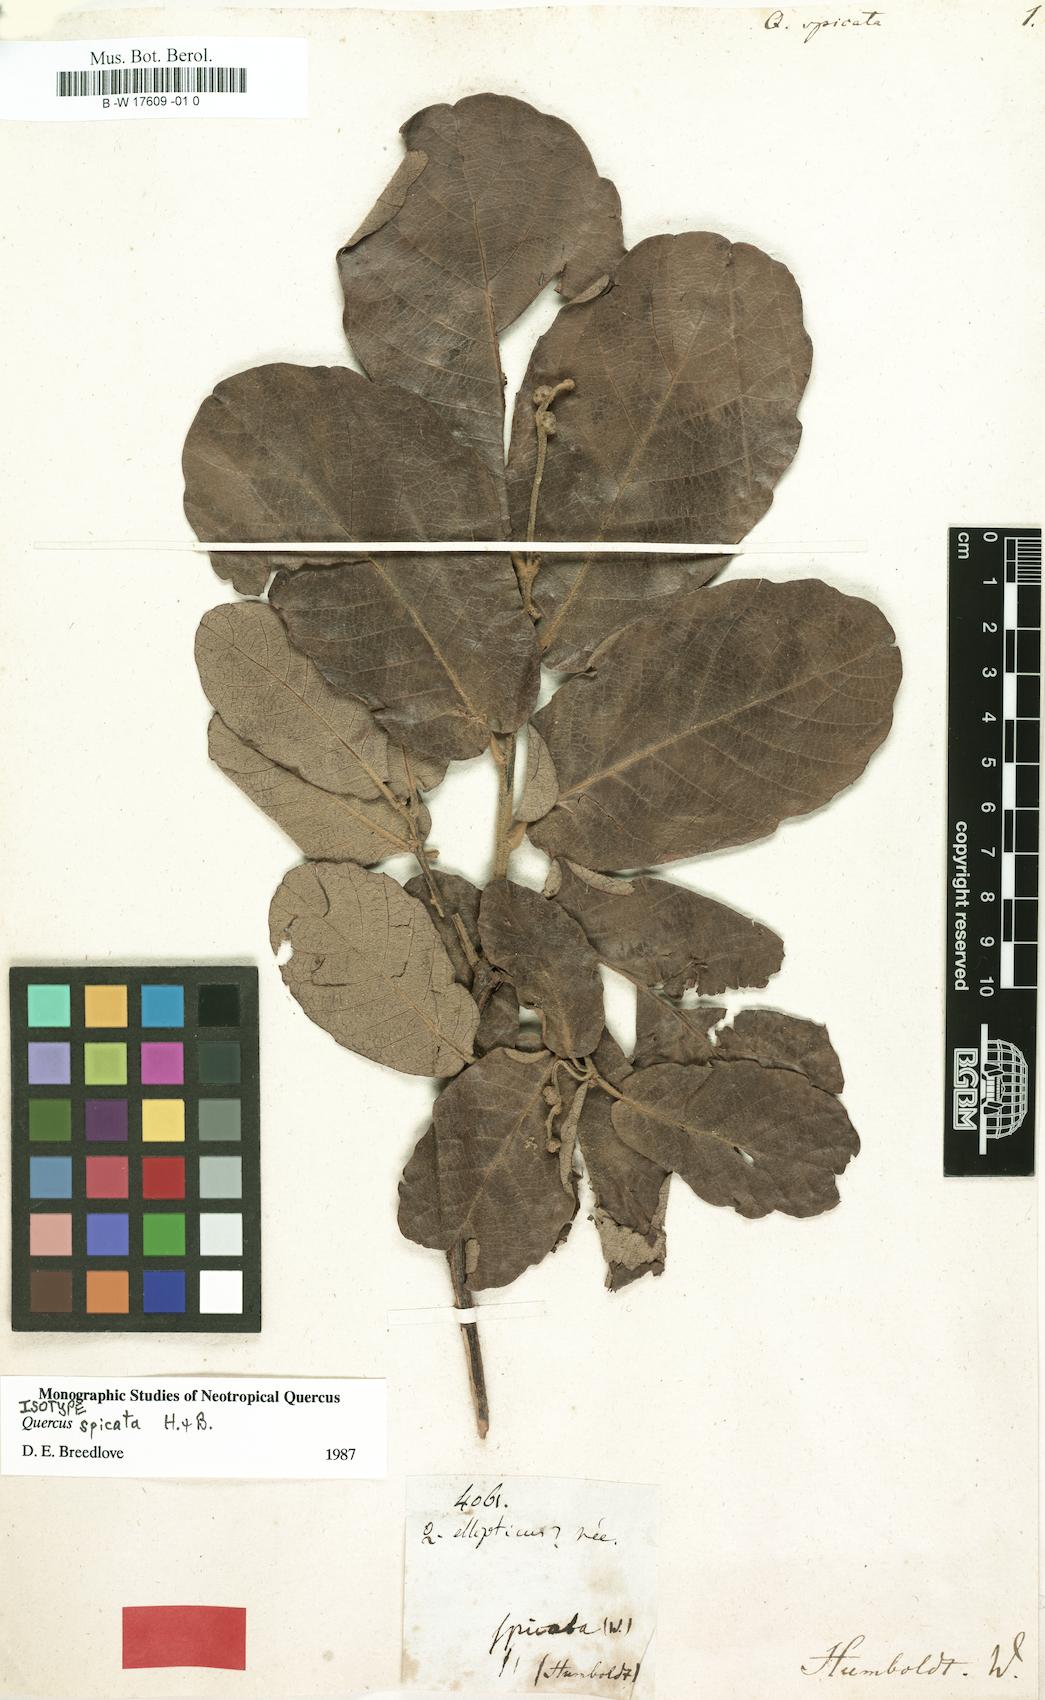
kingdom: Plantae
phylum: Tracheophyta
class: Magnoliopsida
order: Fagales
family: Fagaceae
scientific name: Fagaceae
